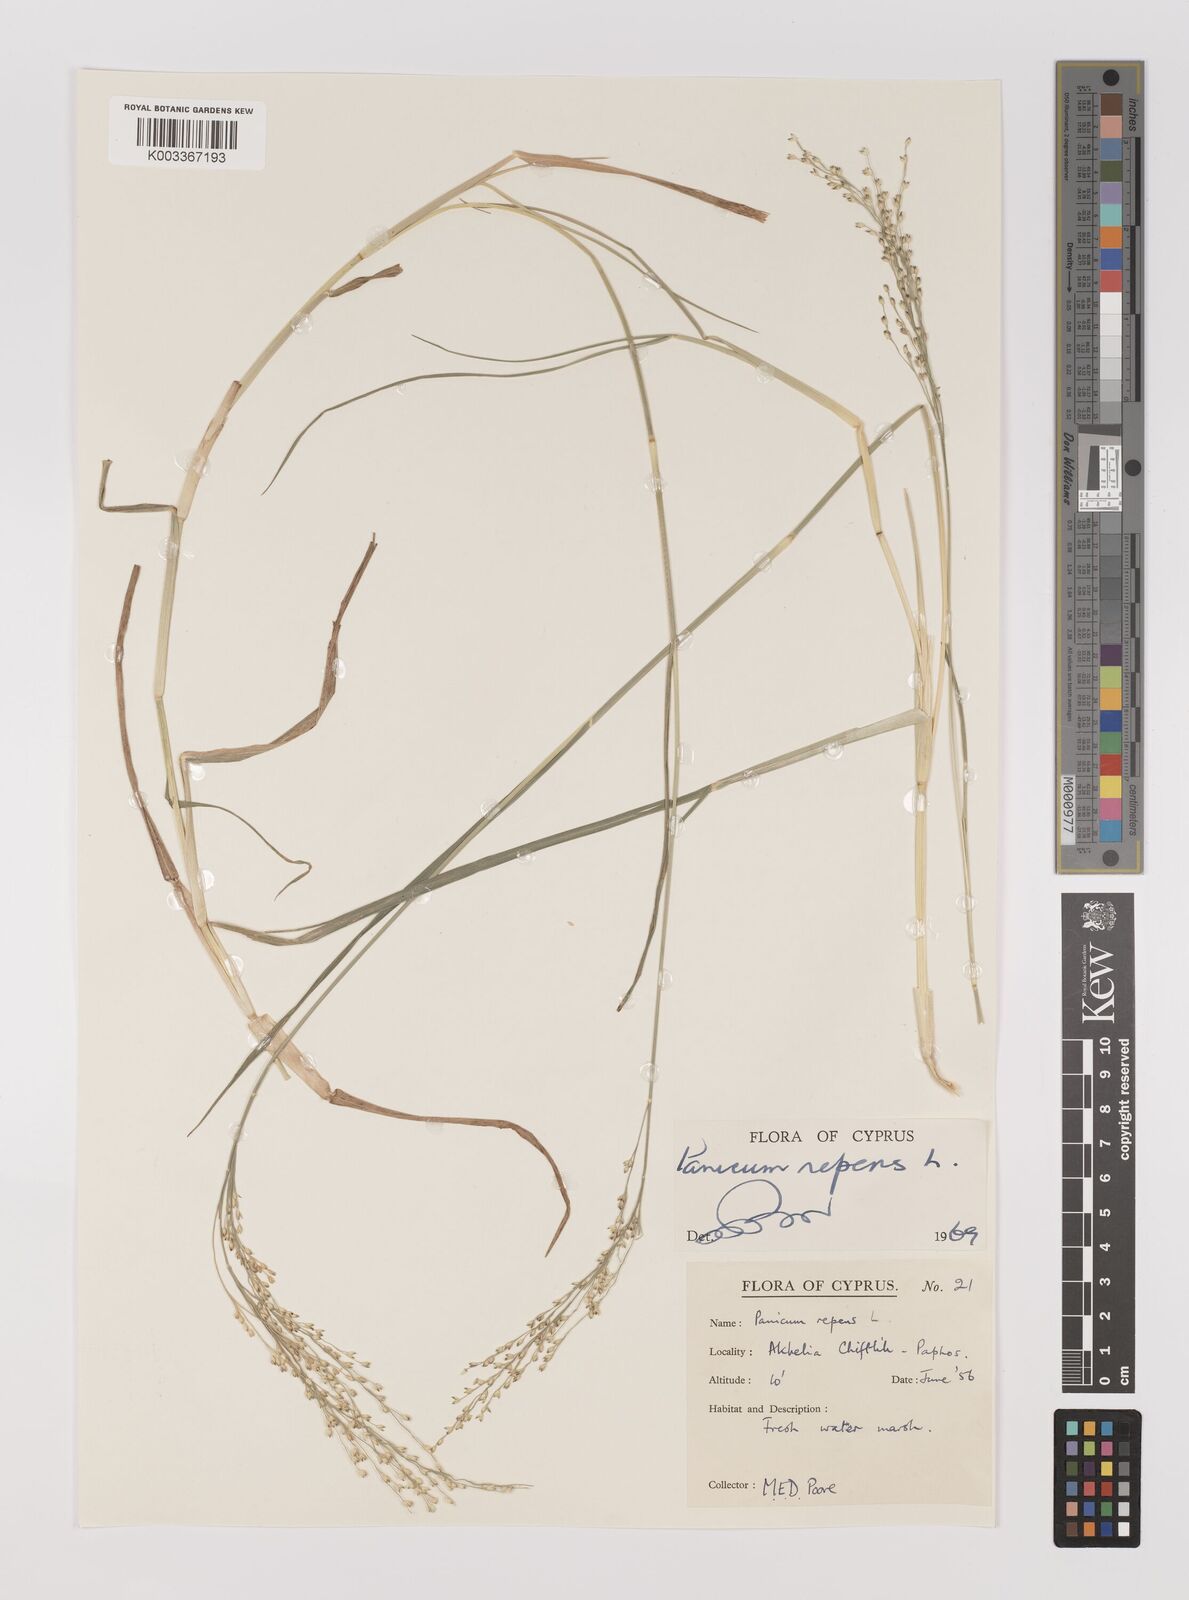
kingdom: Plantae
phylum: Tracheophyta
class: Liliopsida
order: Poales
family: Poaceae
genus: Panicum
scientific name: Panicum repens
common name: Torpedo grass
